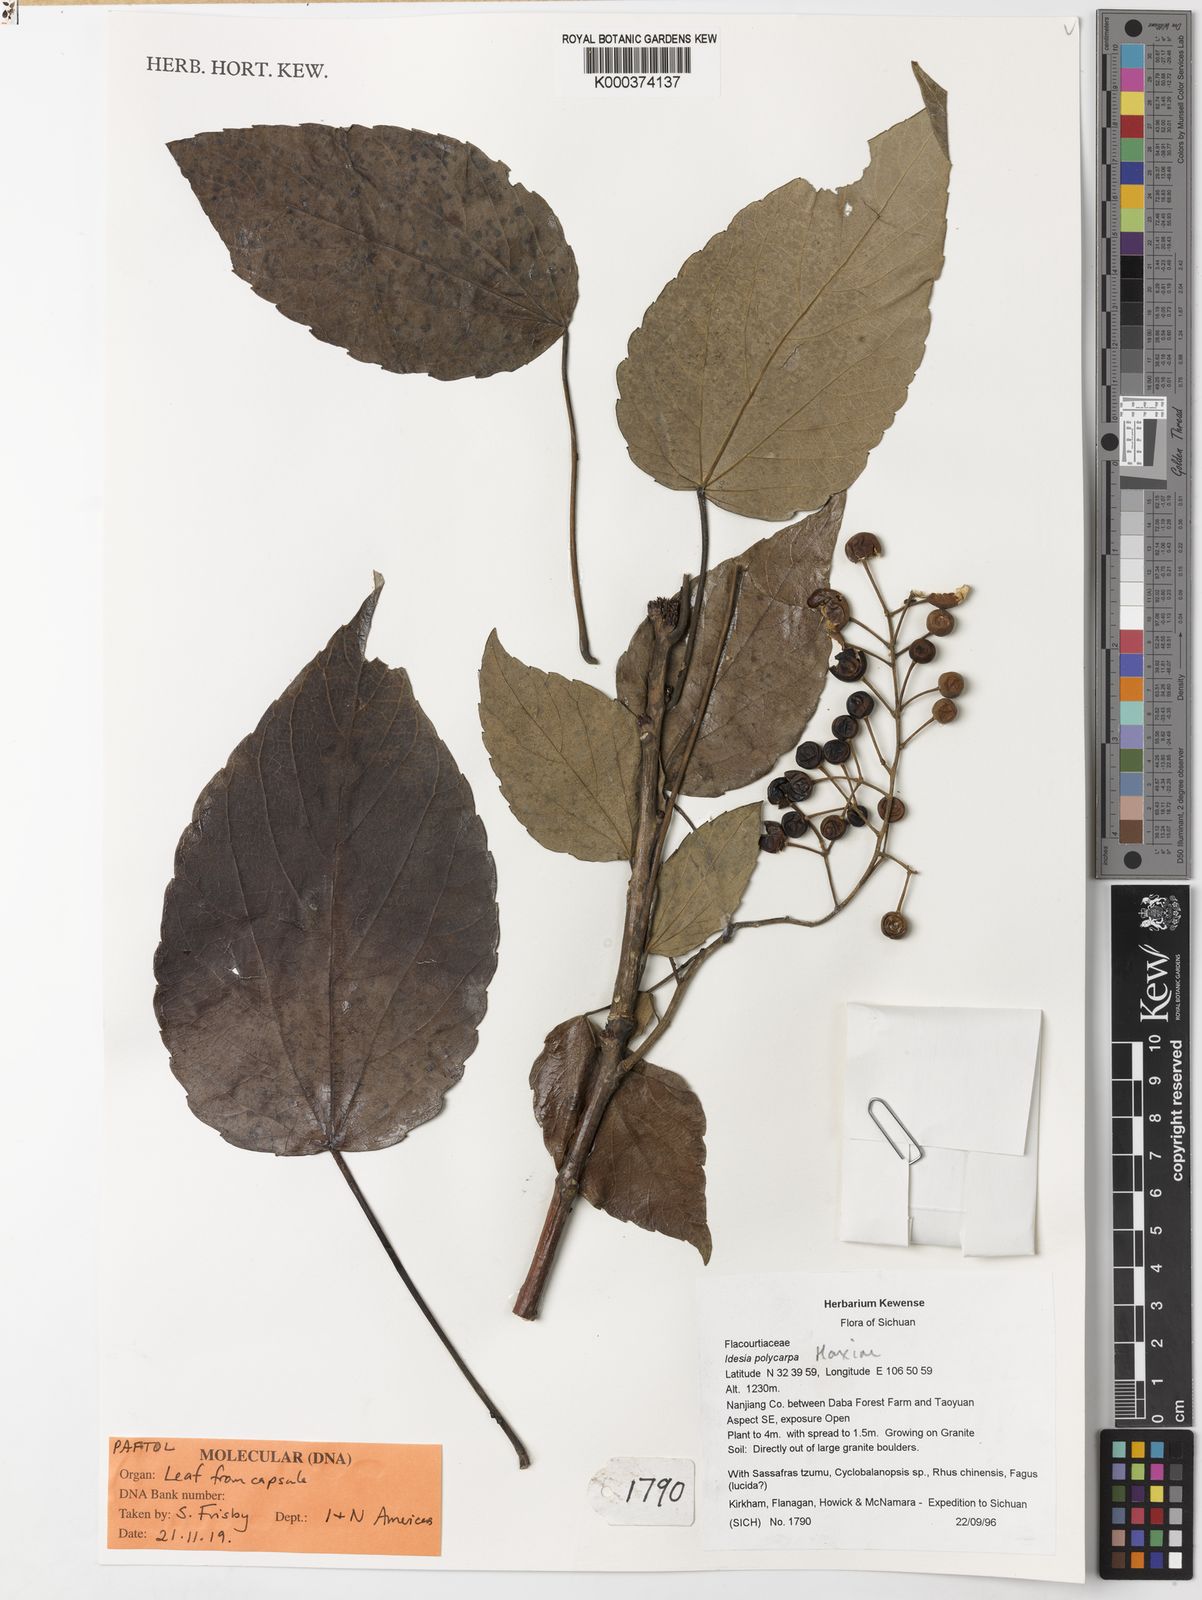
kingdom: Plantae
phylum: Tracheophyta
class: Magnoliopsida
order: Malpighiales
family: Salicaceae
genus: Idesia
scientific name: Idesia polycarpa
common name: Idesia tree
